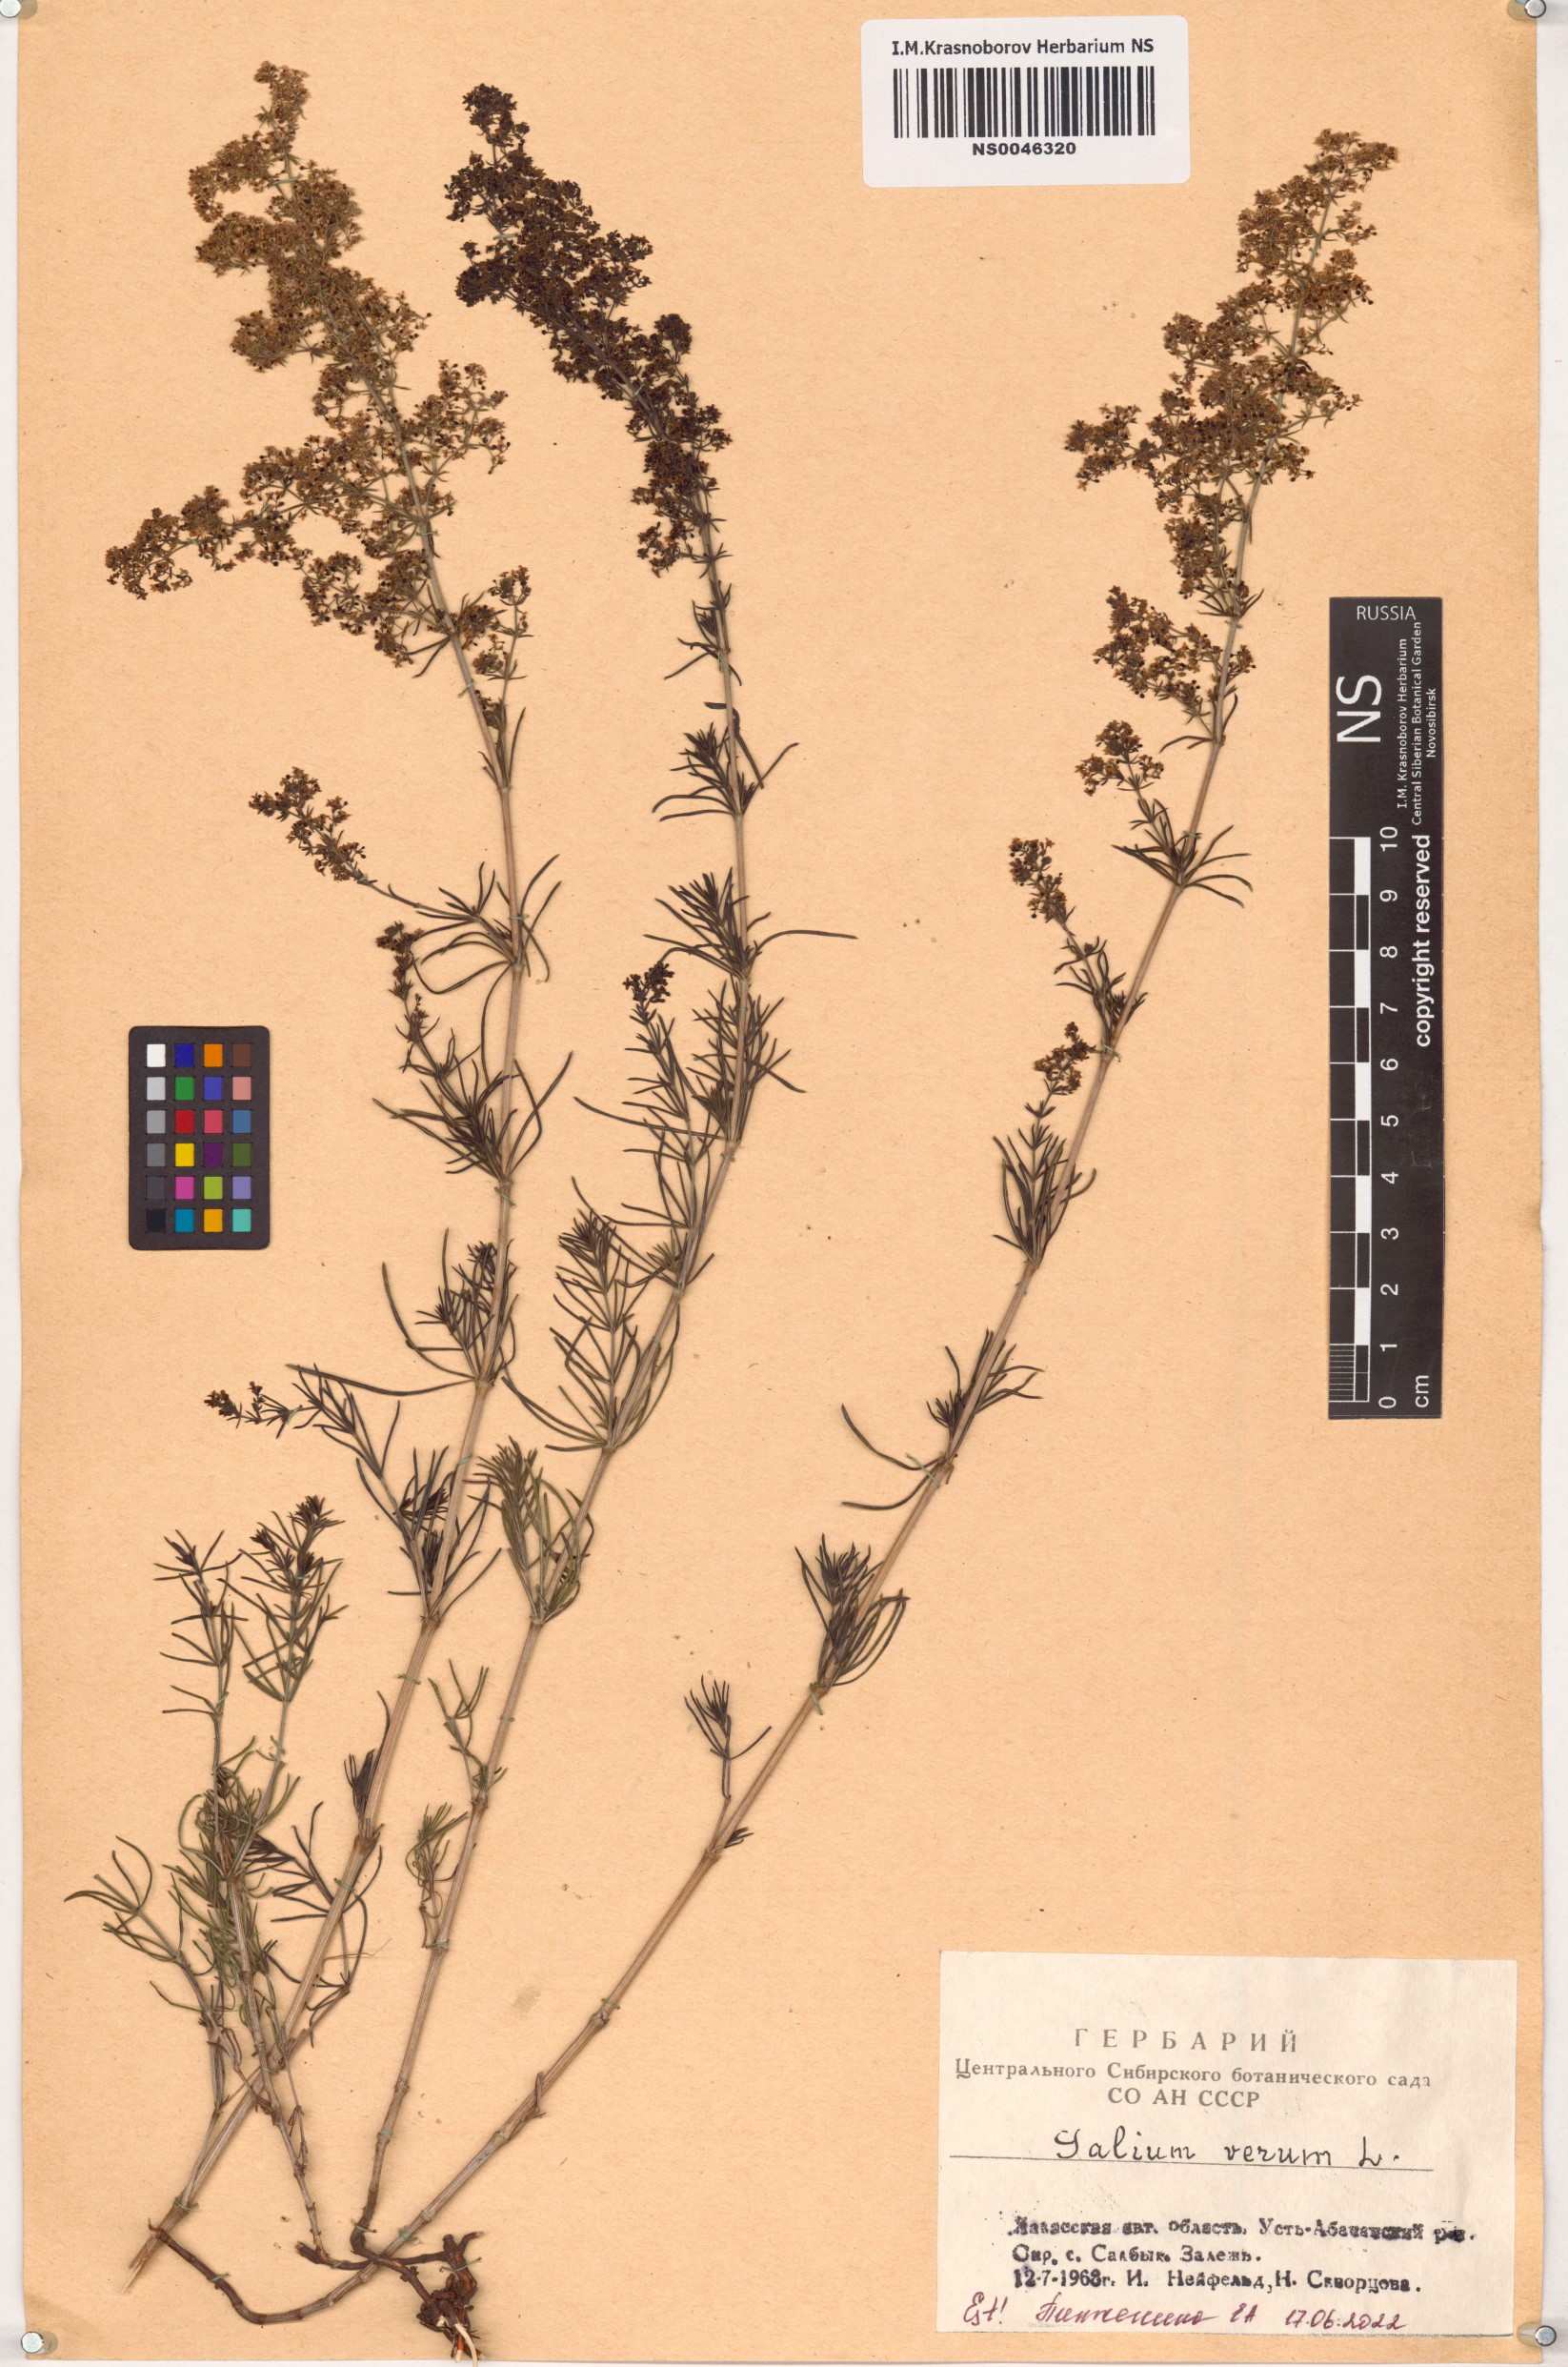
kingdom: Plantae
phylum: Tracheophyta
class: Magnoliopsida
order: Gentianales
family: Rubiaceae
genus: Galium
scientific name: Galium verum
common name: Lady's bedstraw
